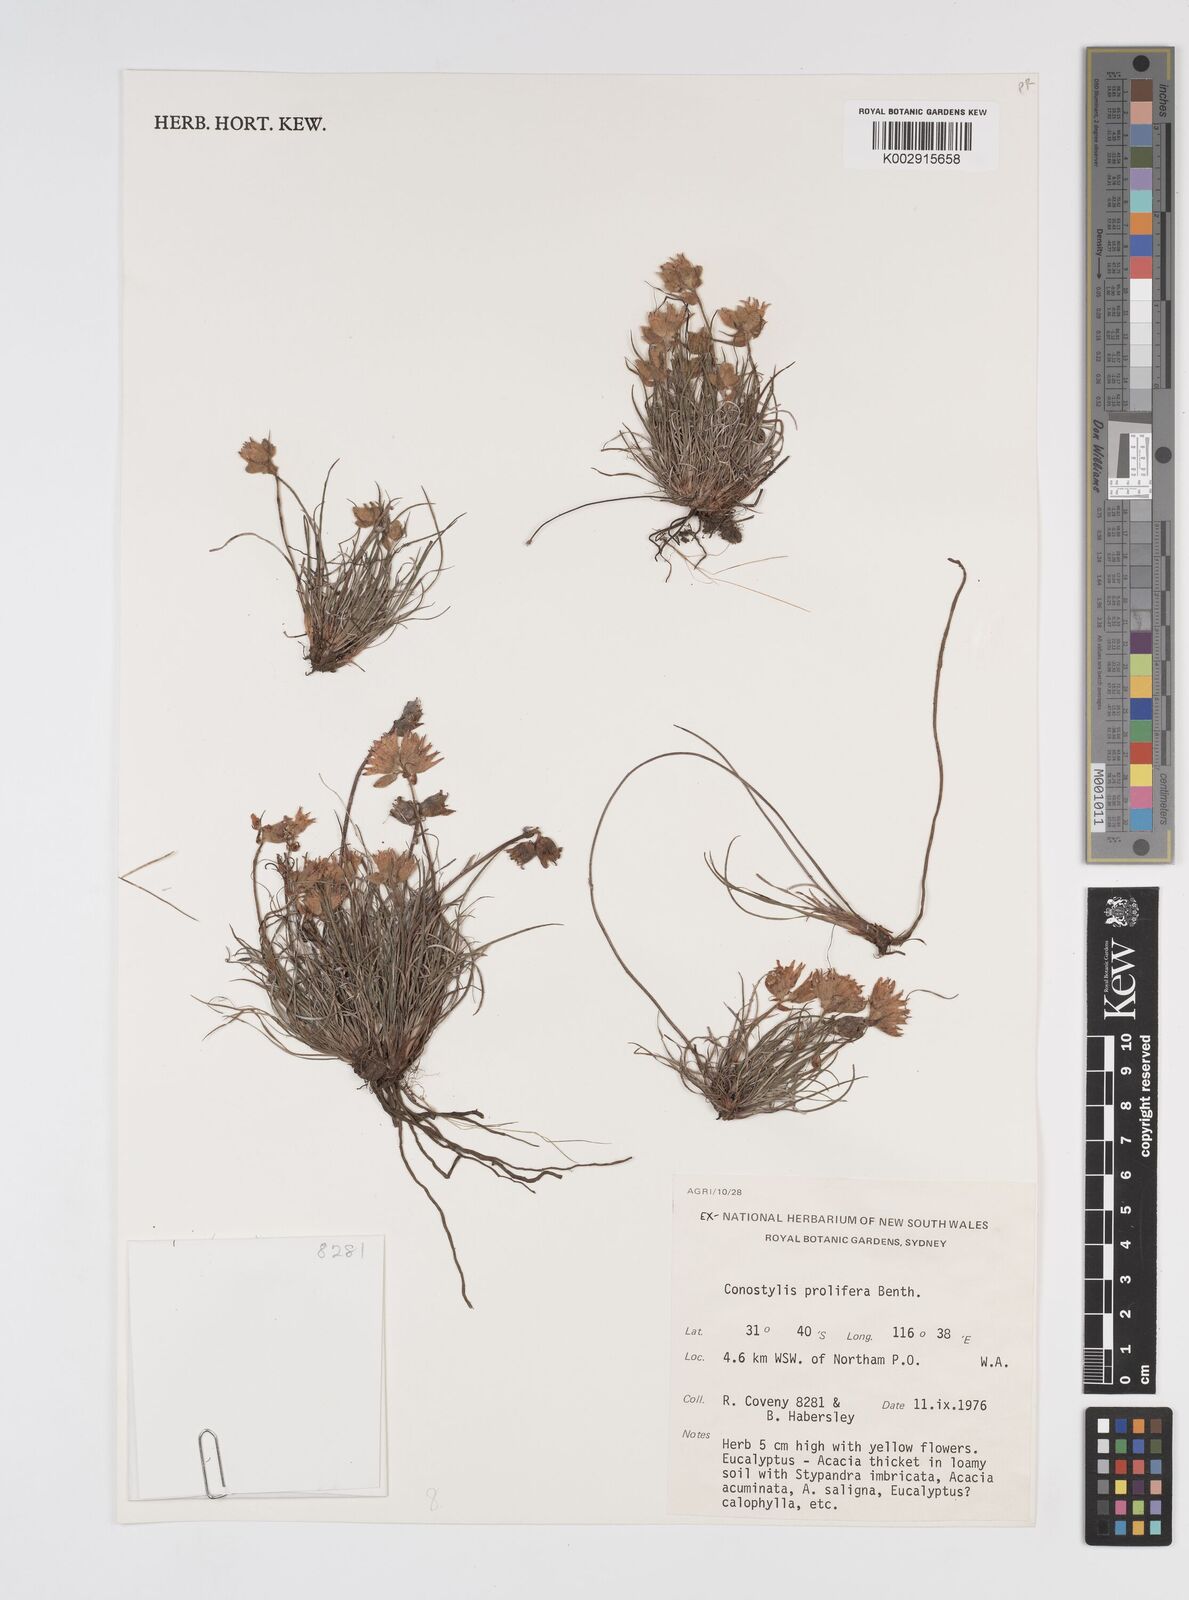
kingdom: Plantae
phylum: Tracheophyta
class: Liliopsida
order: Commelinales
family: Haemodoraceae
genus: Conostylis
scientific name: Conostylis stylidioides
